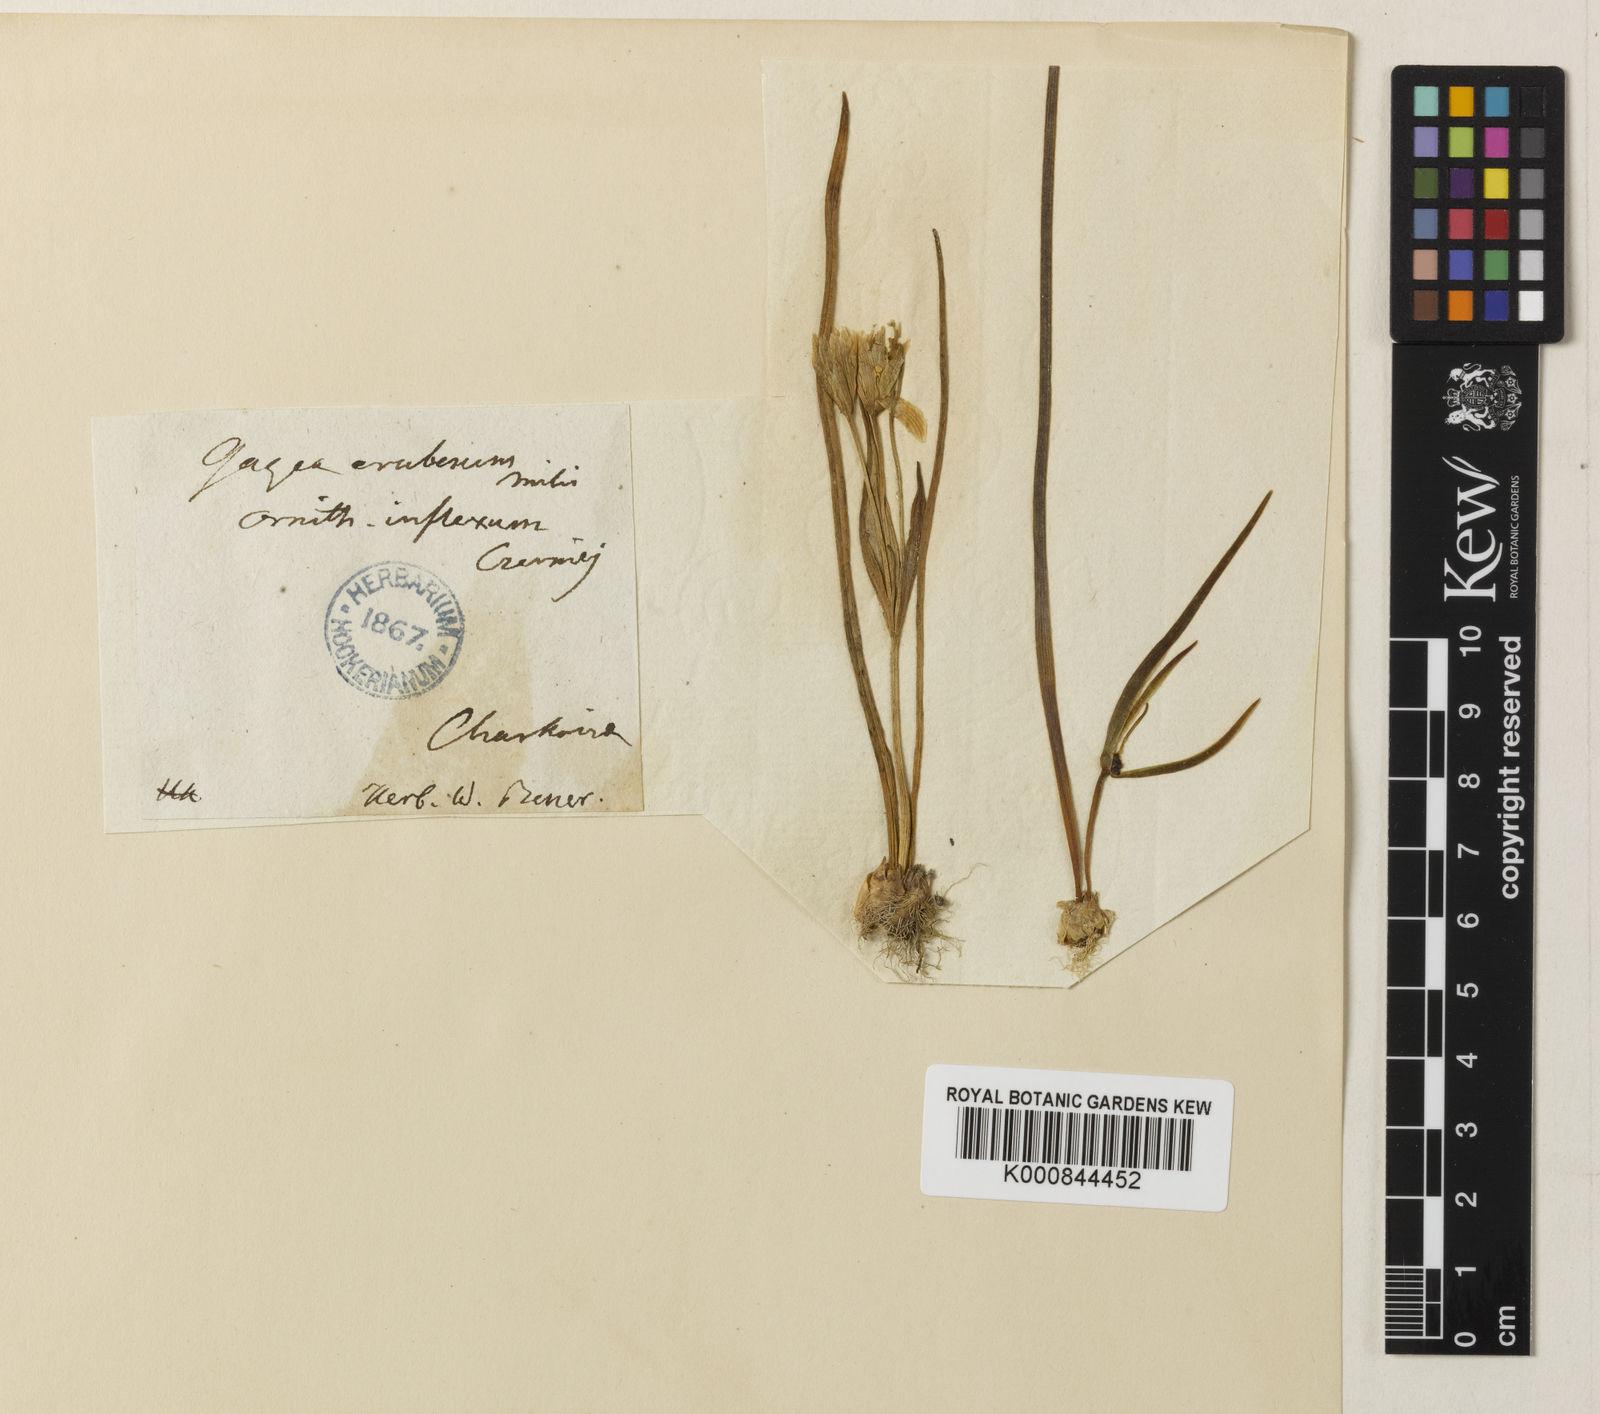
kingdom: Plantae
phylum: Tracheophyta
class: Liliopsida
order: Liliales
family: Liliaceae
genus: Gagea
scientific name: Gagea fragifera
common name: Lily
